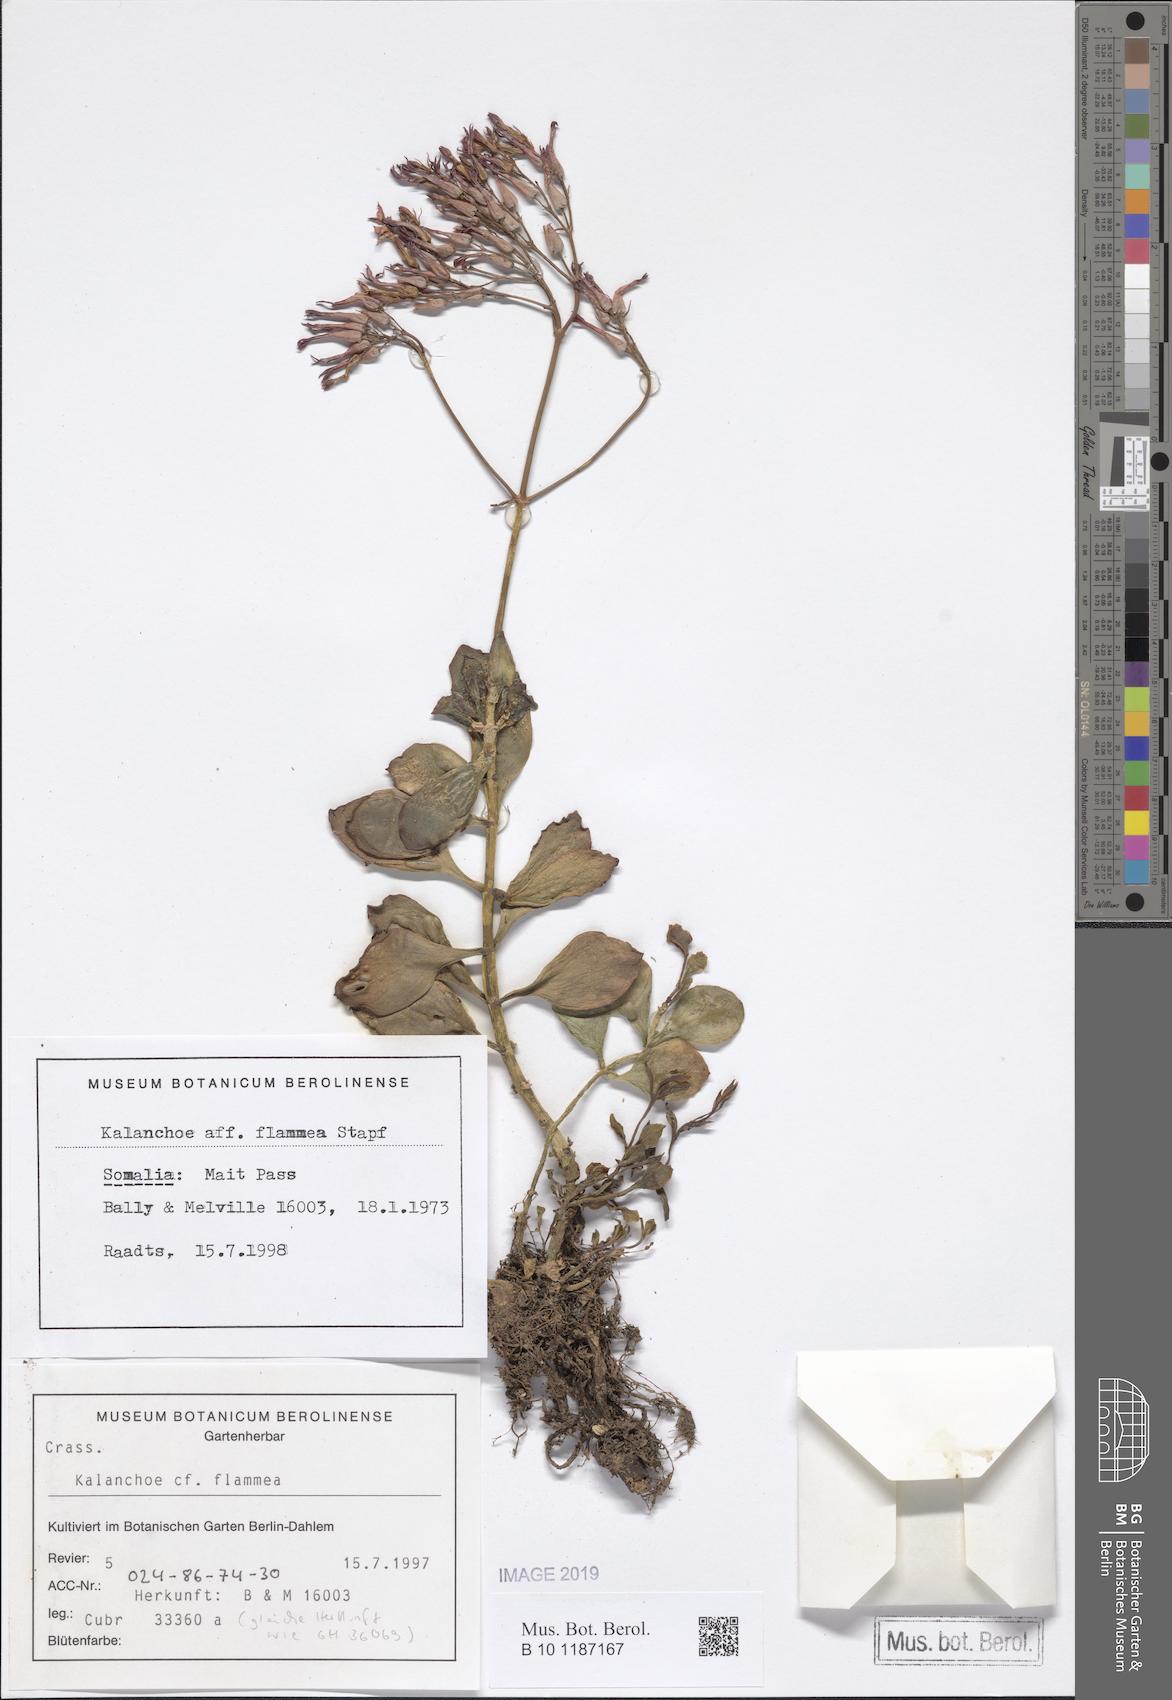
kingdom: Plantae
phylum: Tracheophyta
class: Magnoliopsida
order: Saxifragales
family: Crassulaceae
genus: Kalanchoe
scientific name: Kalanchoe glaucescens
